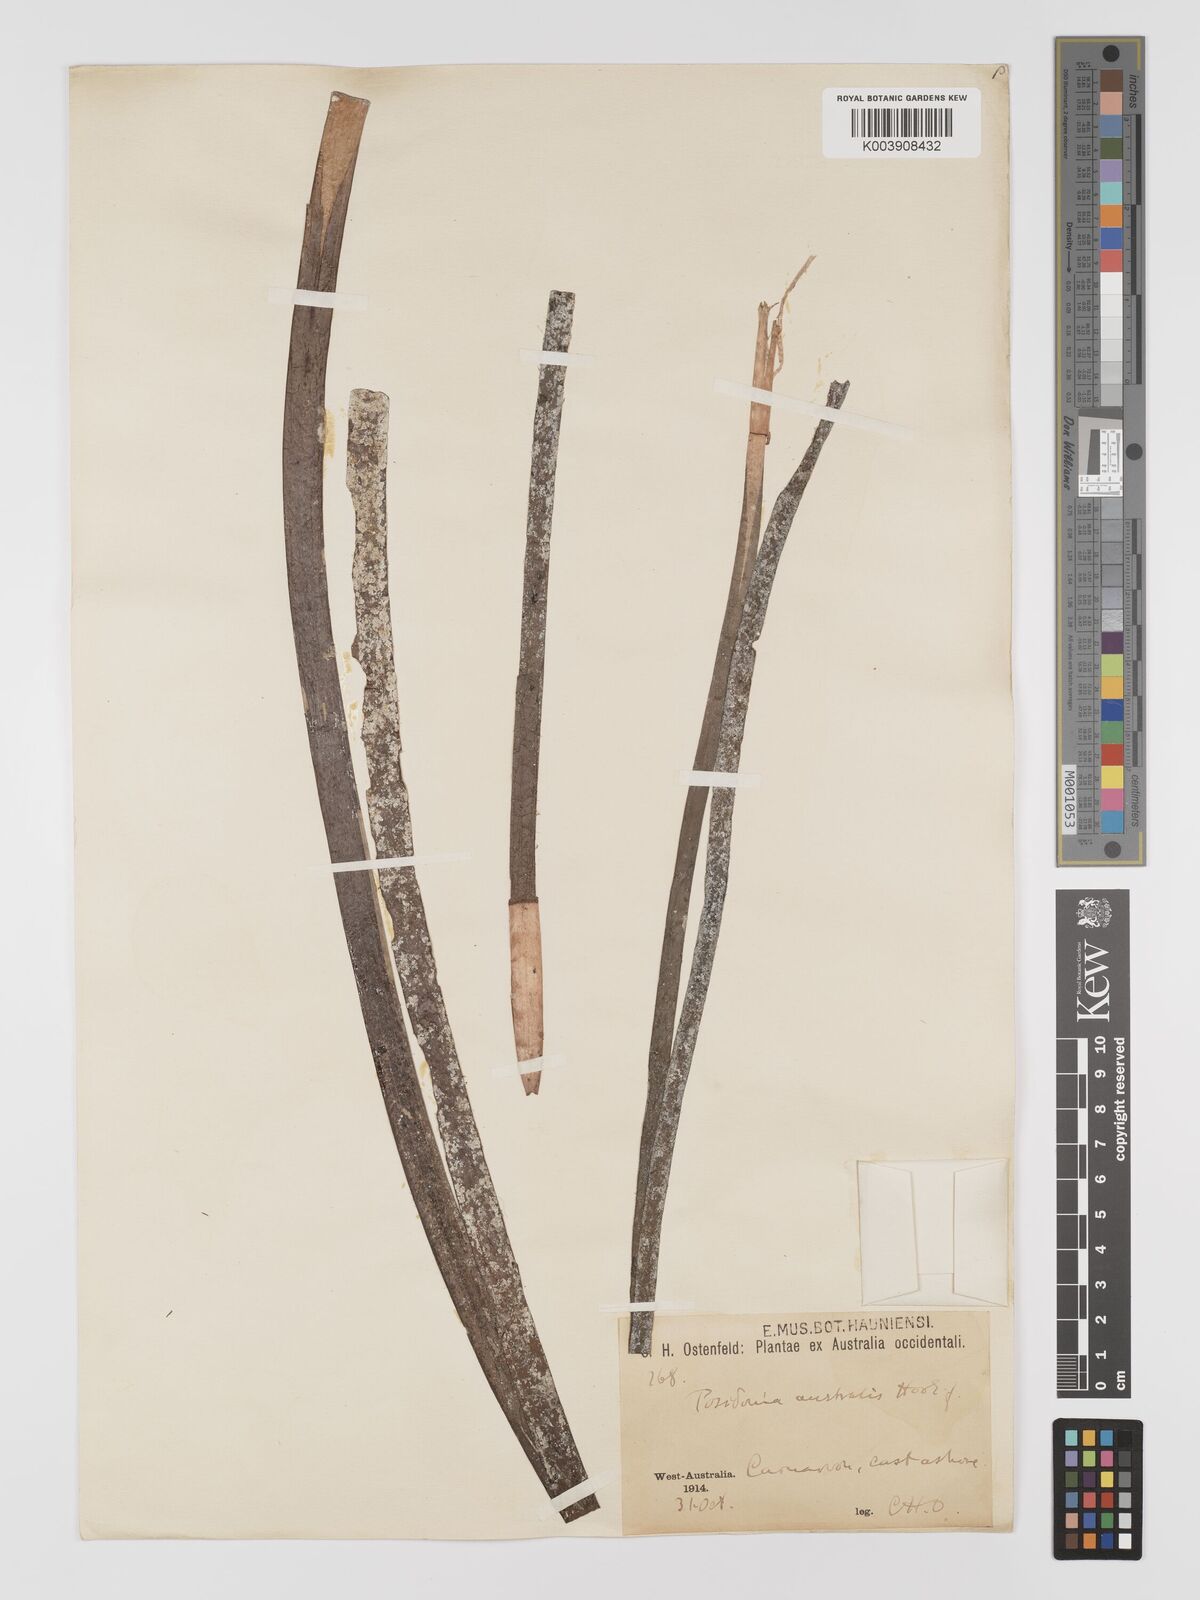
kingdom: Plantae
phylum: Tracheophyta
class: Liliopsida
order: Alismatales
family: Posidoniaceae
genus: Posidonia
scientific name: Posidonia australis
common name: Species code: pa
